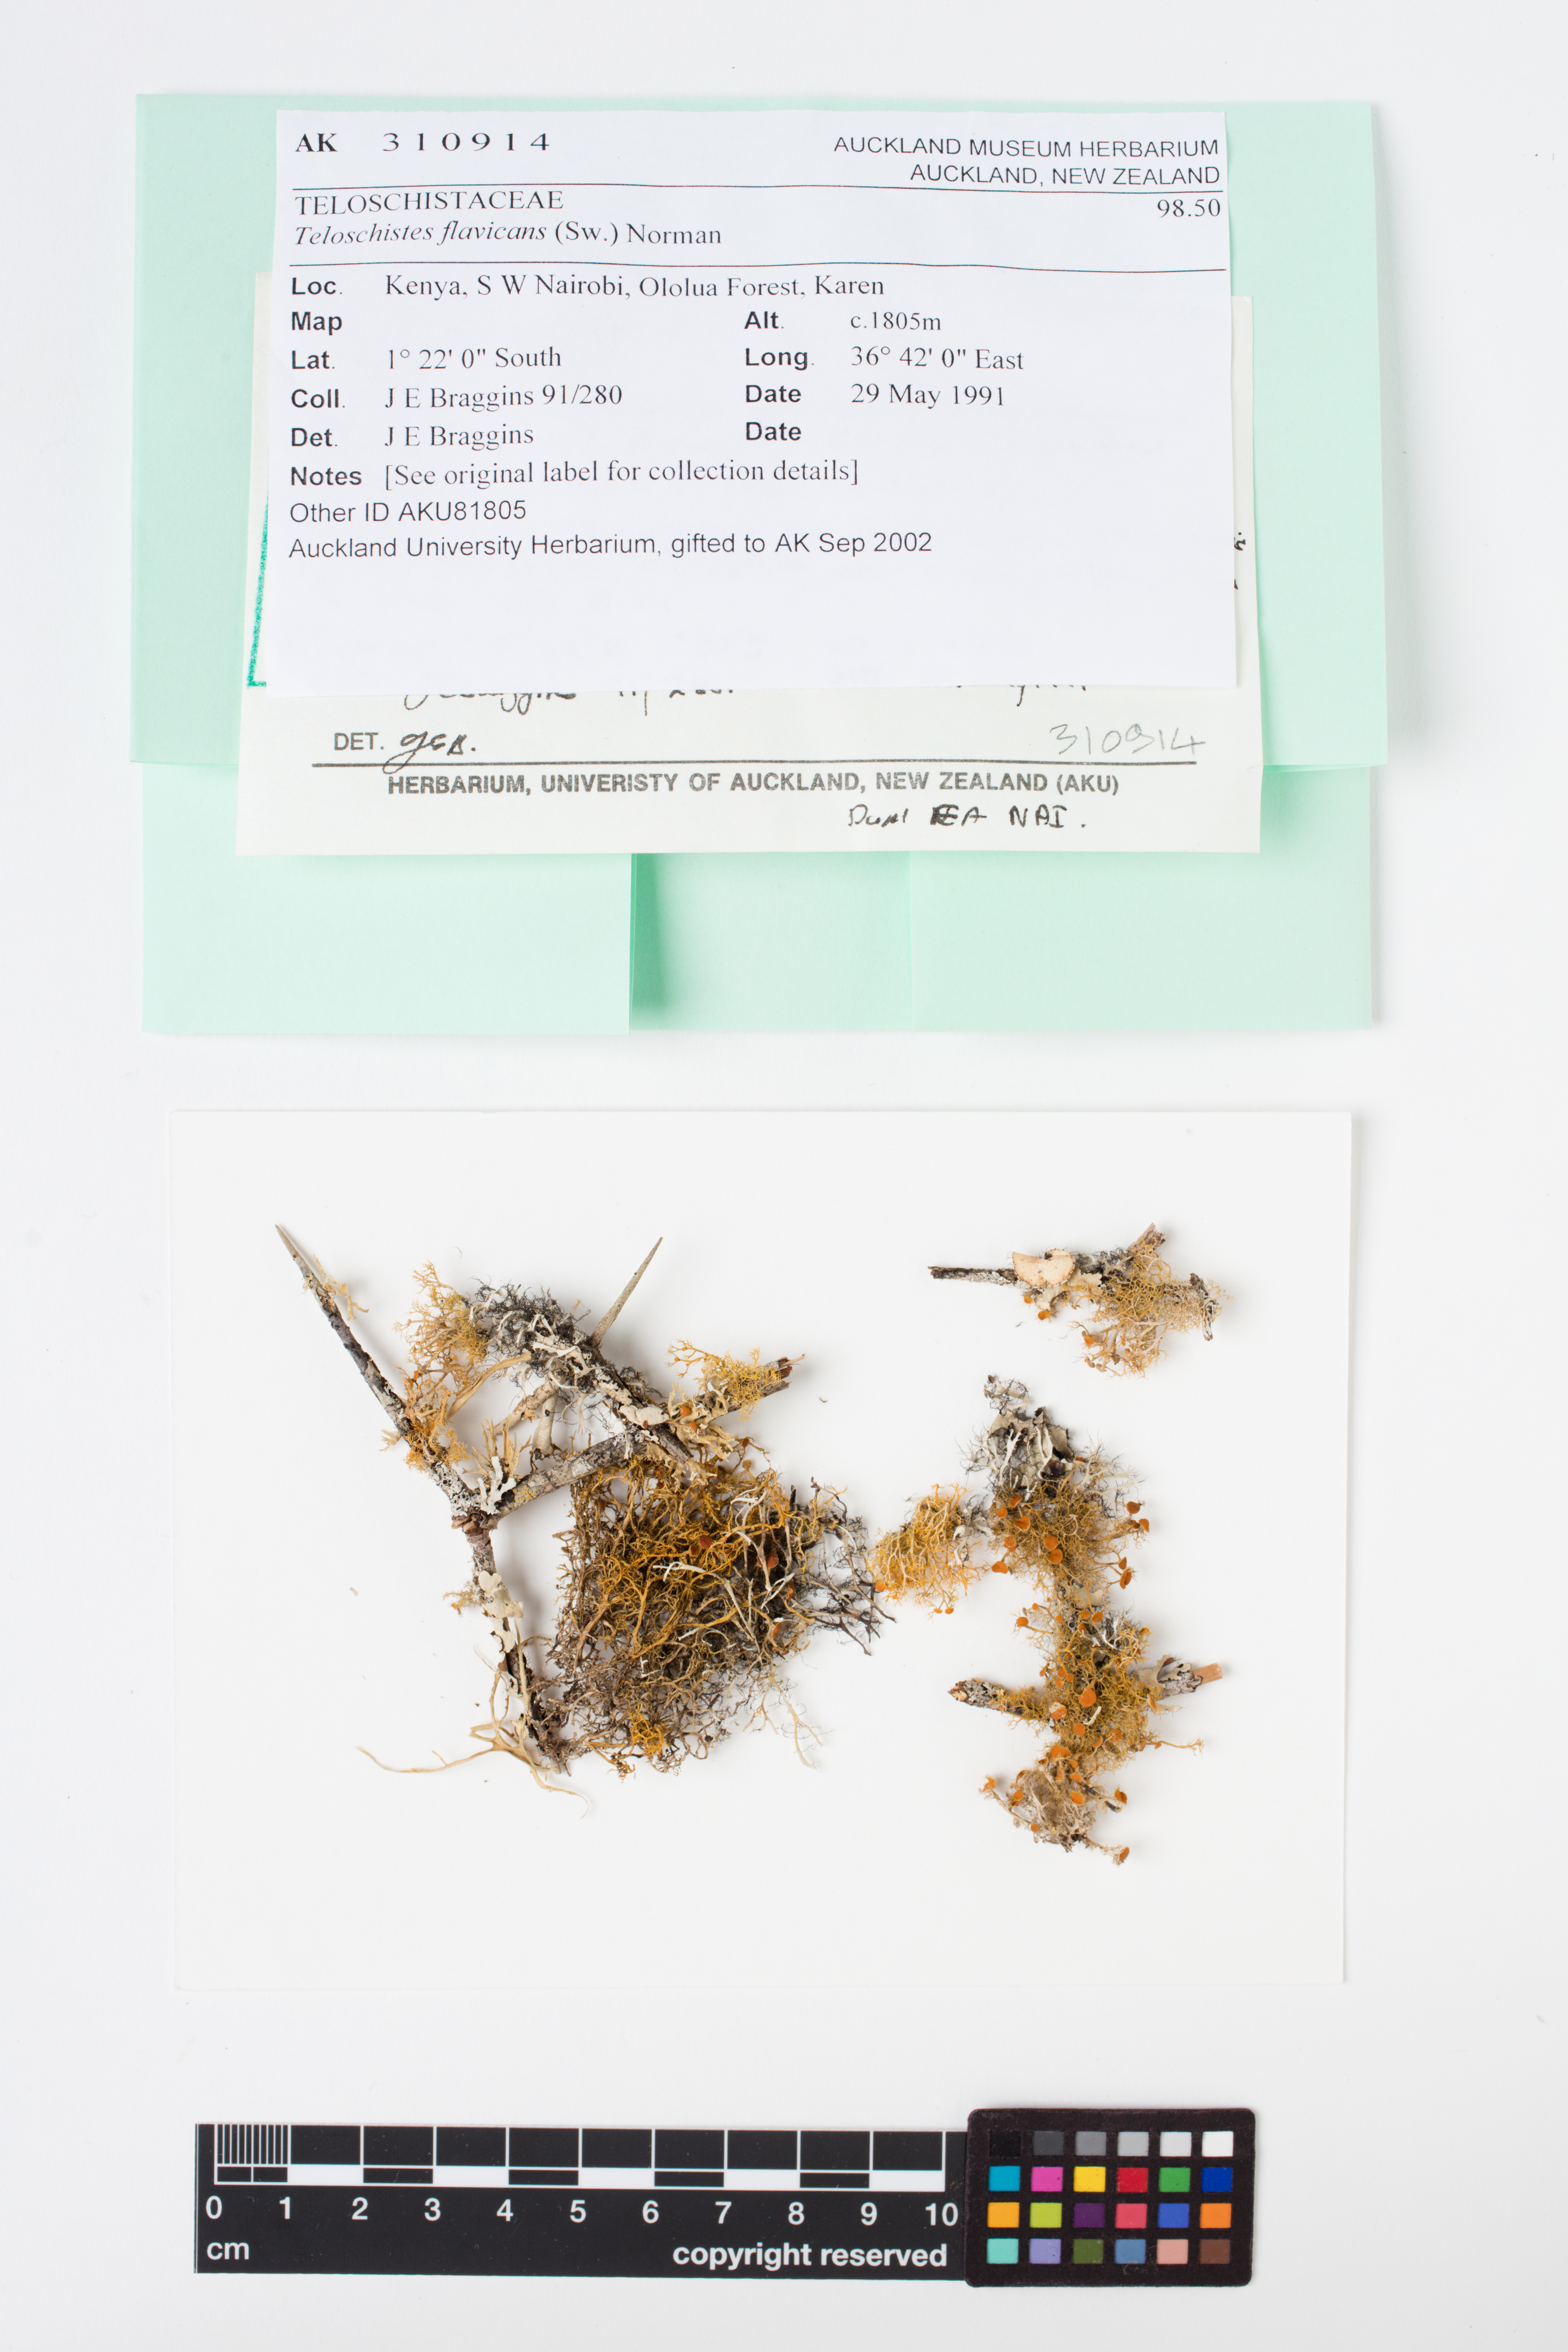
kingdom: Fungi
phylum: Ascomycota
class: Lecanoromycetes
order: Teloschistales
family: Teloschistaceae
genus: Teloschistes
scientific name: Teloschistes flavicans
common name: Golden hair-lichen
